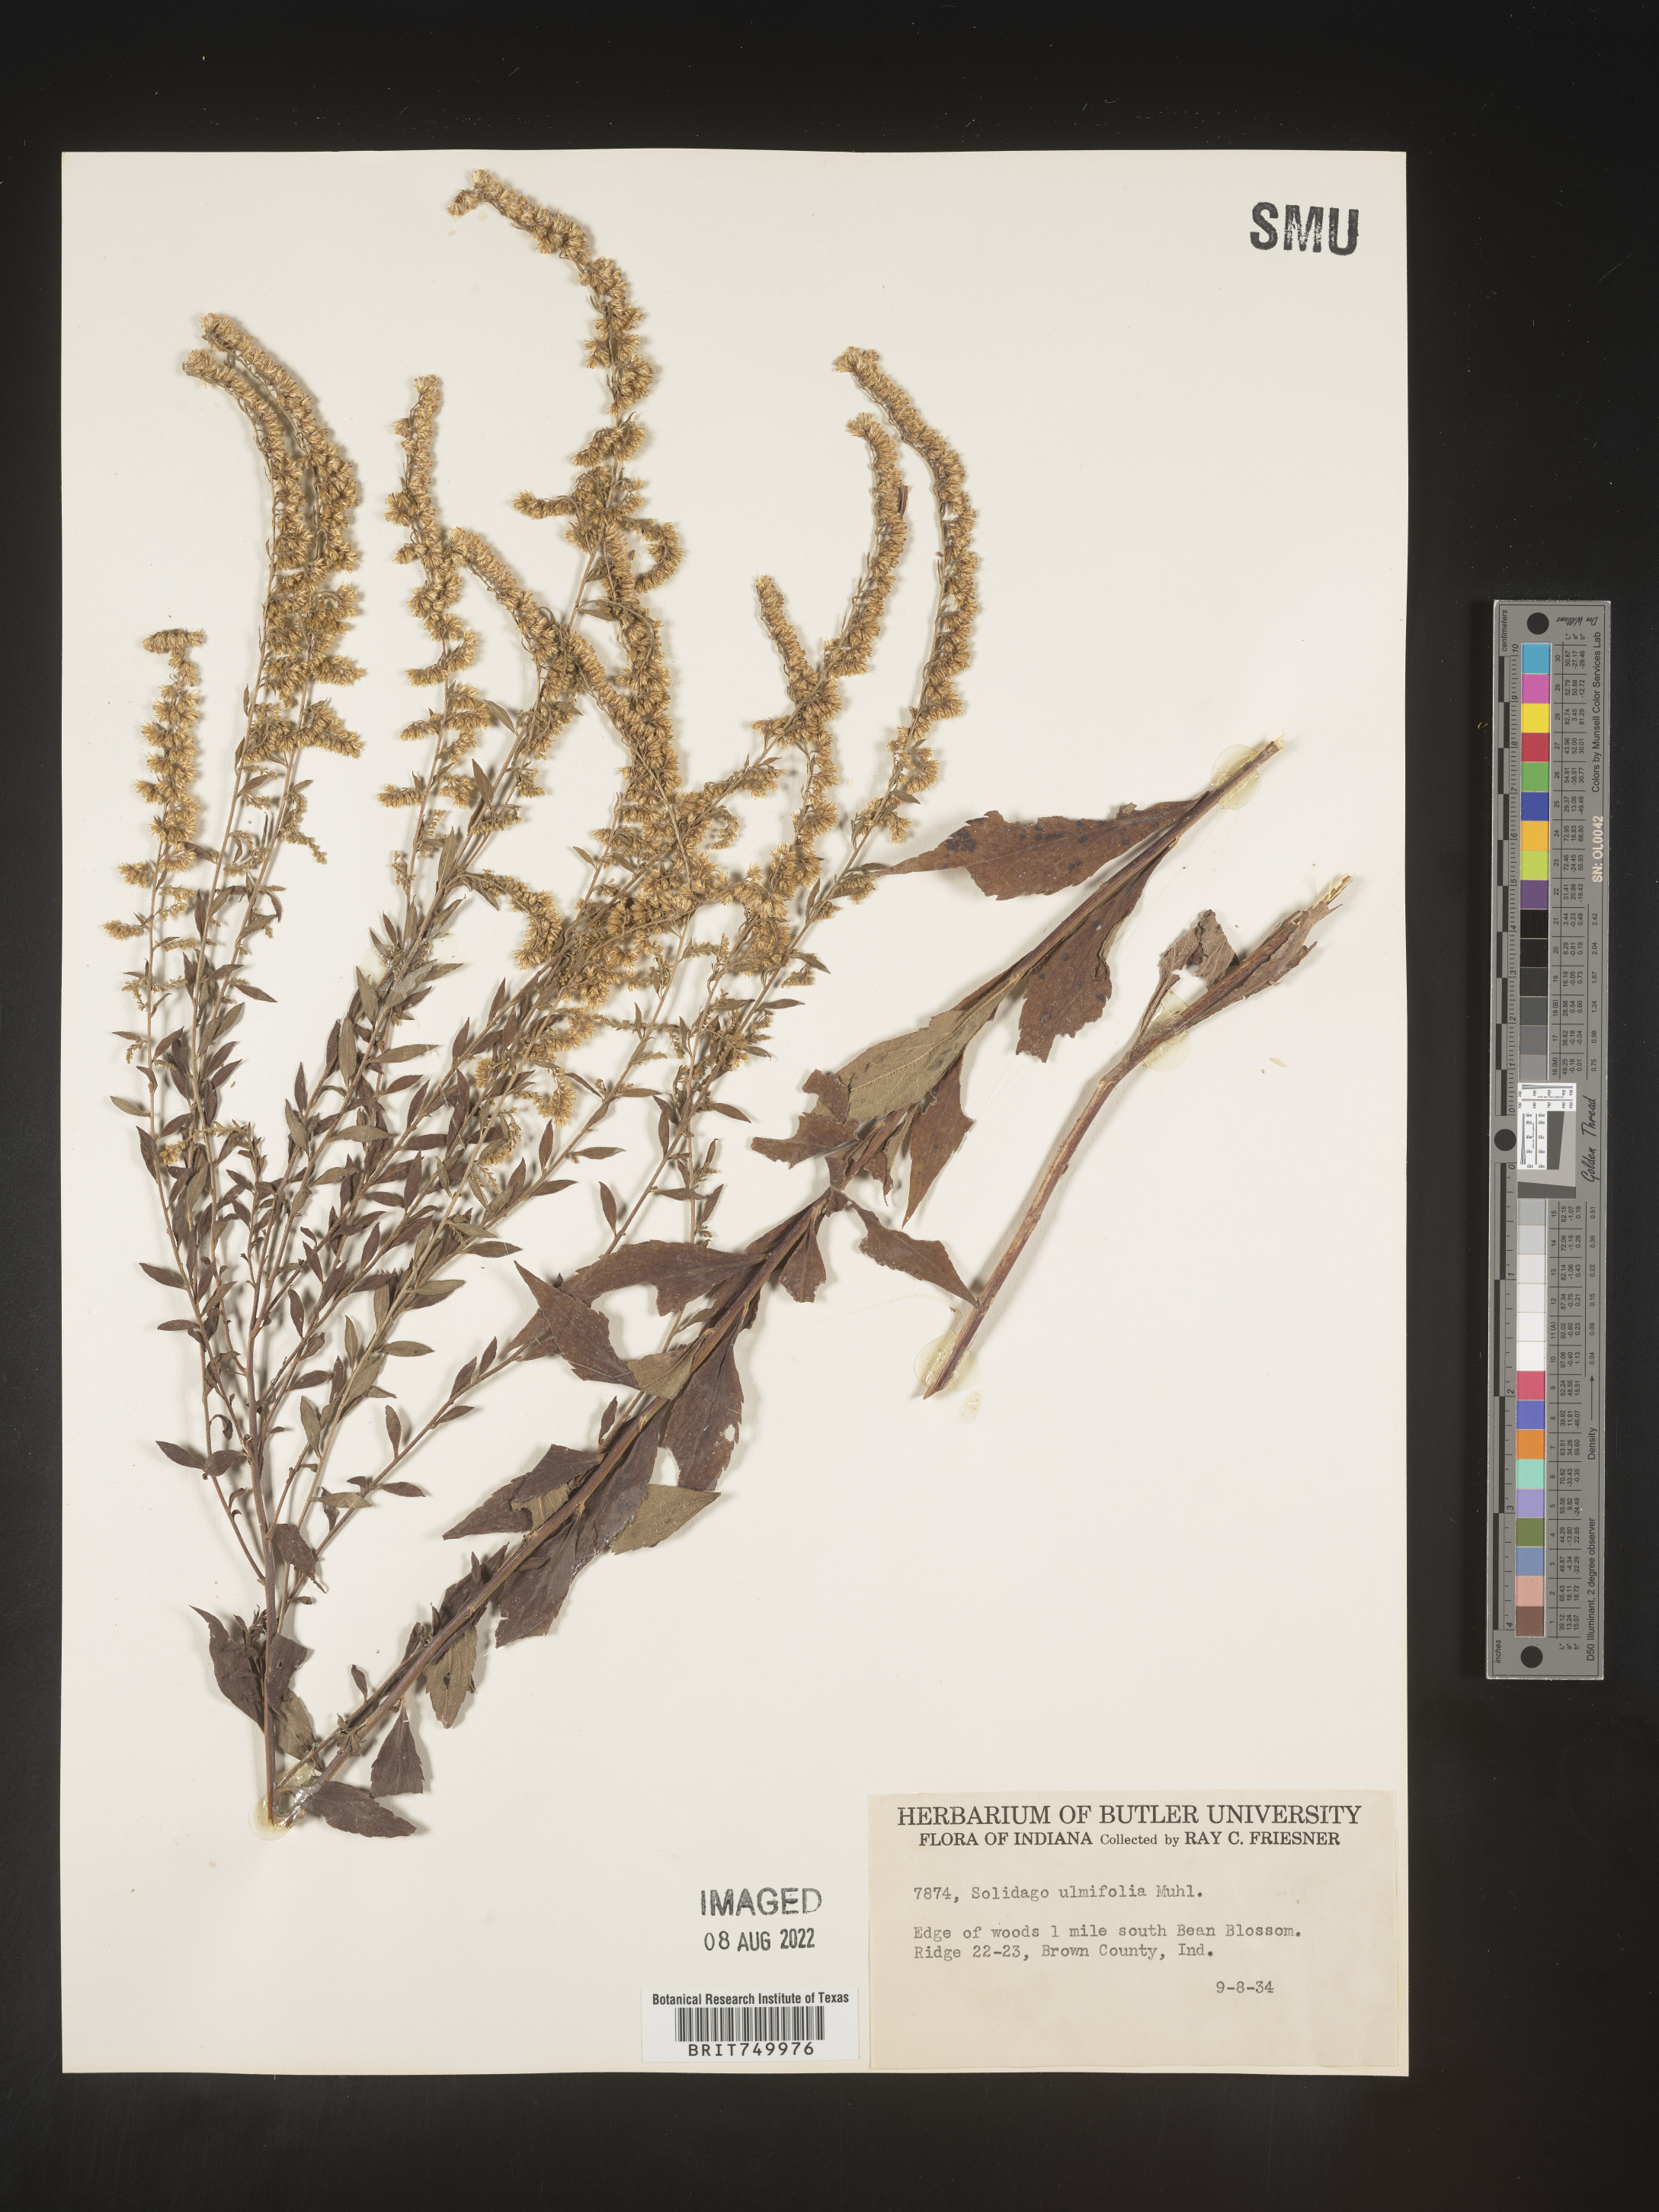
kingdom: Plantae
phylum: Tracheophyta
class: Magnoliopsida
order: Asterales
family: Asteraceae
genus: Solidago
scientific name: Solidago ulmifolia
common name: Elm-leaf goldenrod
